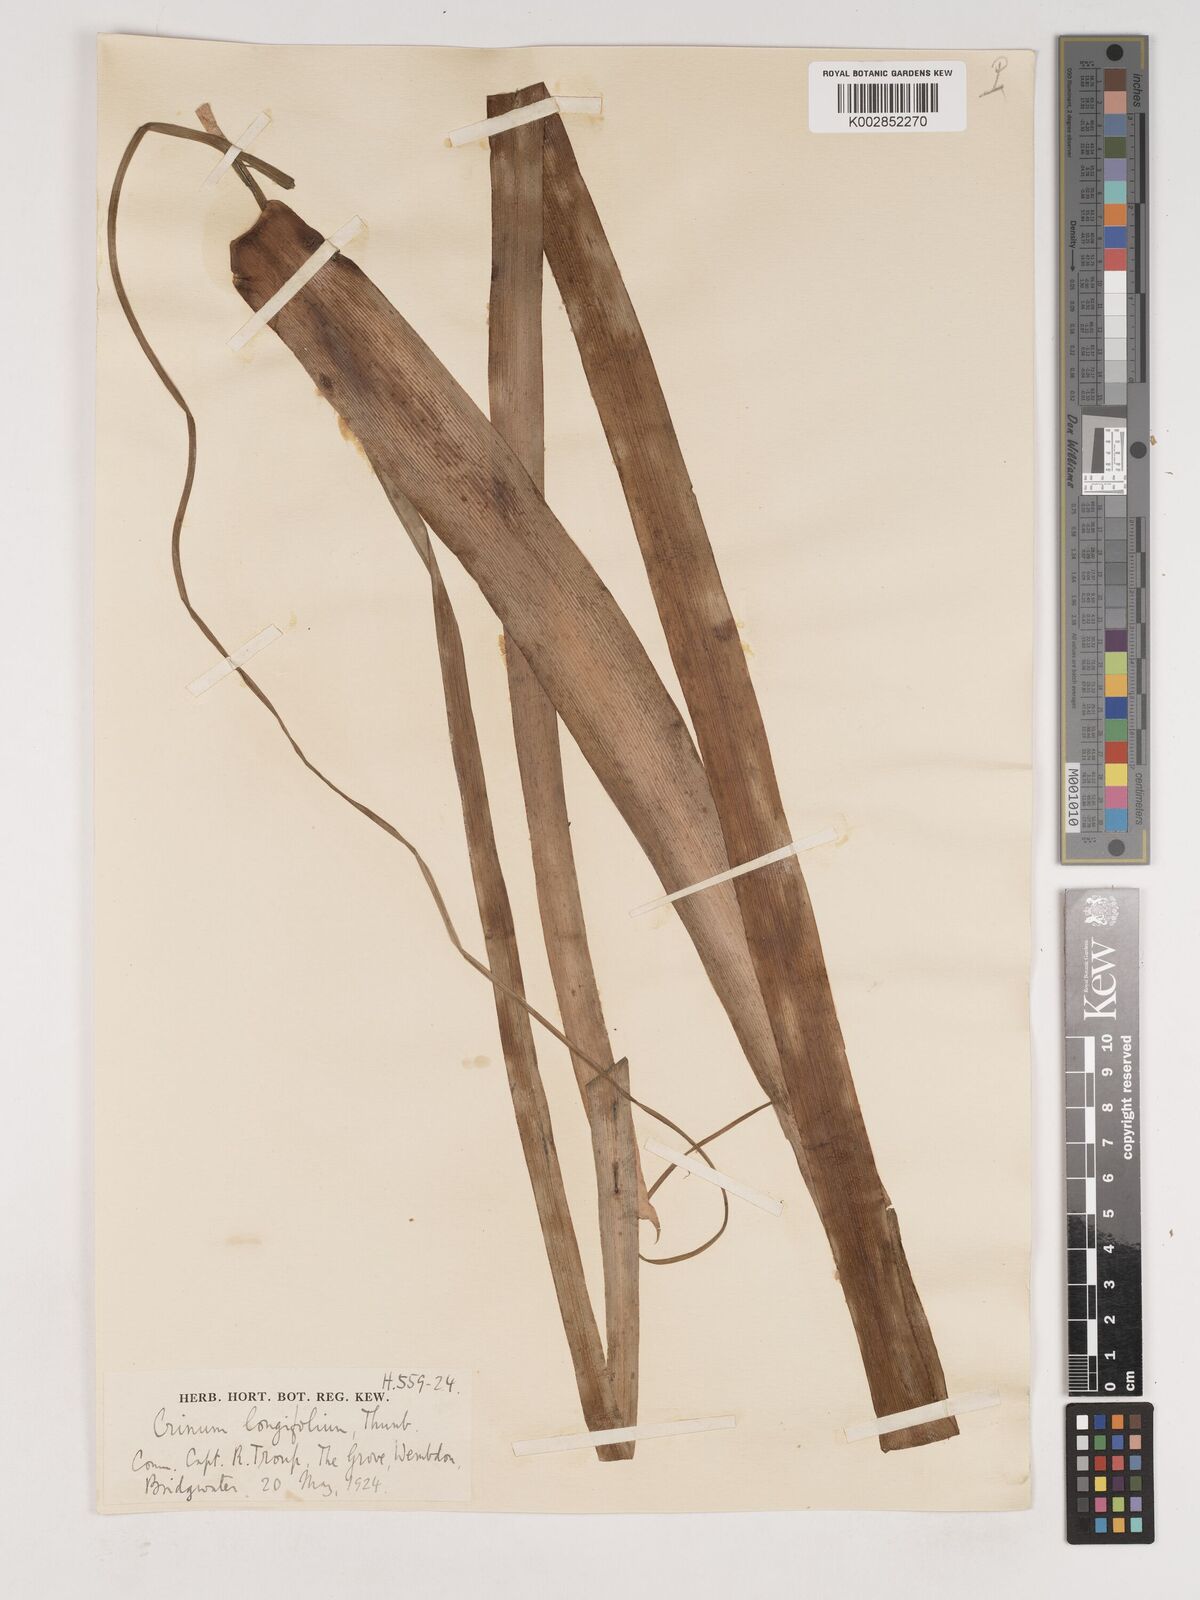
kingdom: Plantae
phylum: Tracheophyta
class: Liliopsida
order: Asparagales
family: Amaryllidaceae
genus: Crinum
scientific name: Crinum
